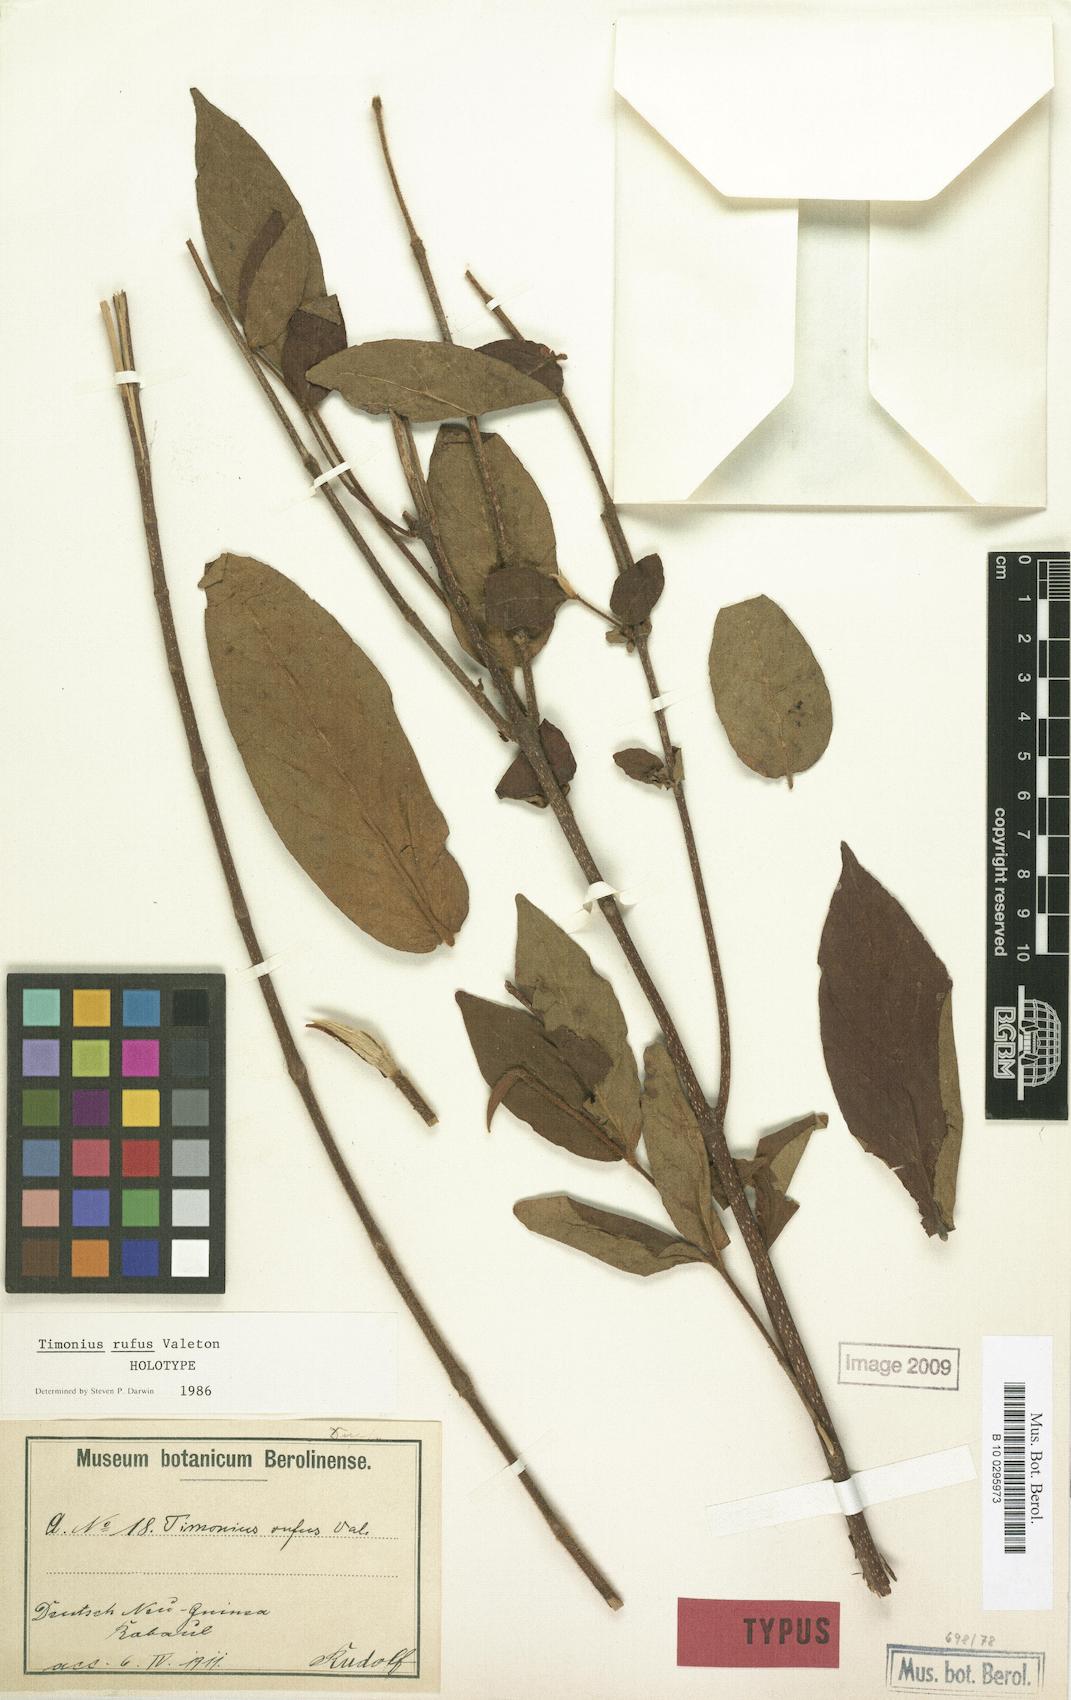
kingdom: Plantae
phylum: Tracheophyta
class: Magnoliopsida
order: Gentianales
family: Rubiaceae
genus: Timonius
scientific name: Timonius rufus
